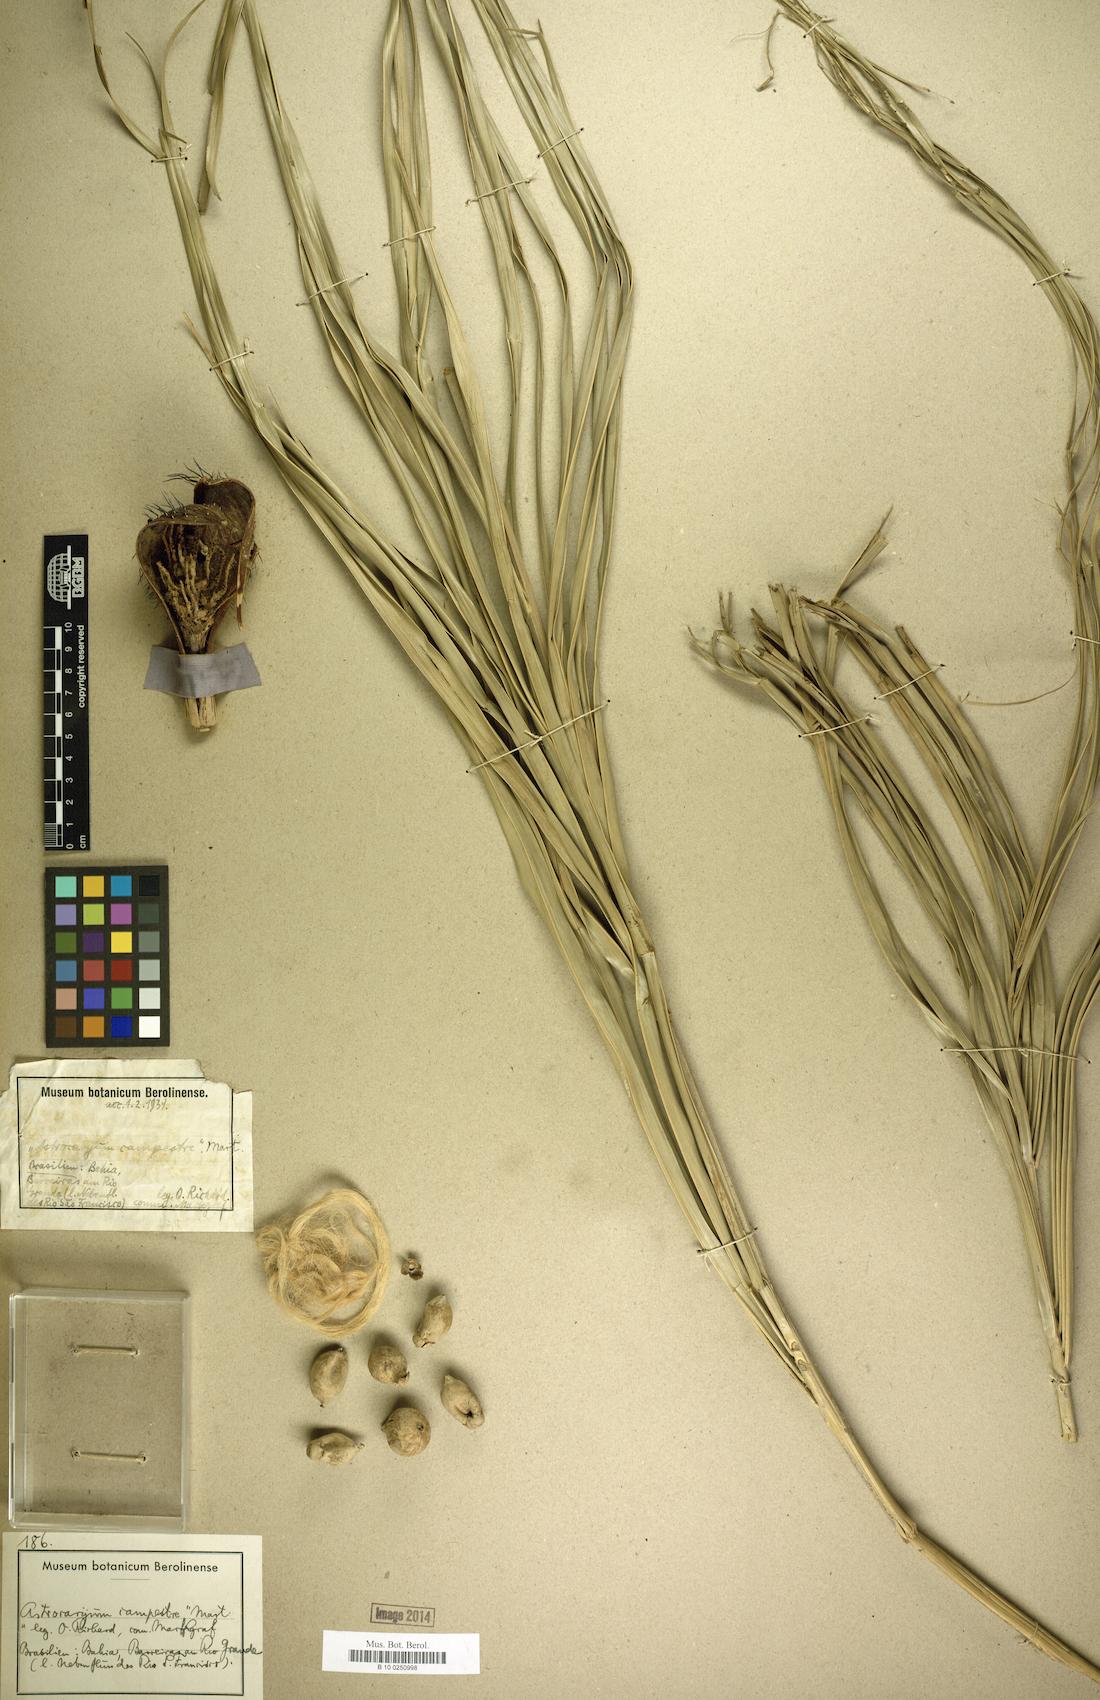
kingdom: Plantae
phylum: Tracheophyta
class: Liliopsida
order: Arecales
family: Arecaceae
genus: Astrocaryum
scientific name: Astrocaryum campestre
